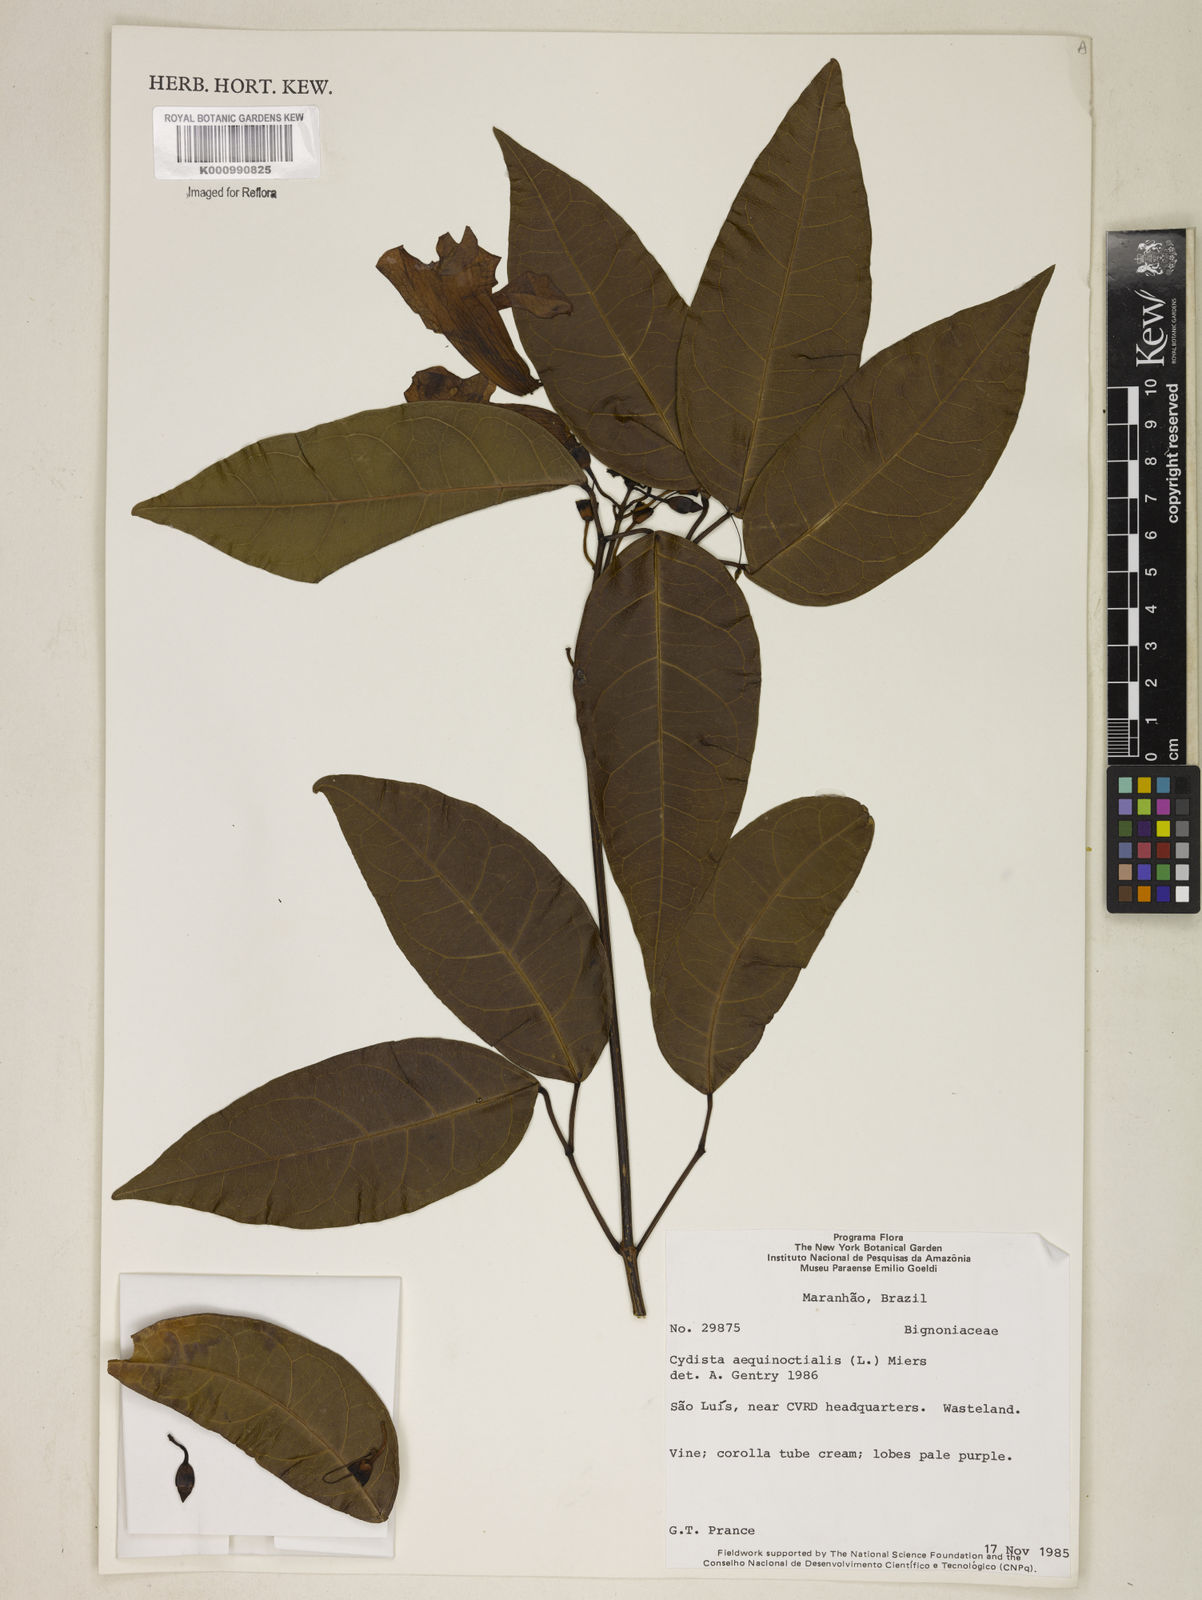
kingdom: Plantae
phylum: Tracheophyta
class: Magnoliopsida
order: Lamiales
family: Bignoniaceae
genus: Bignonia
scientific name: Bignonia aequinoctialis
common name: Garlicvine
